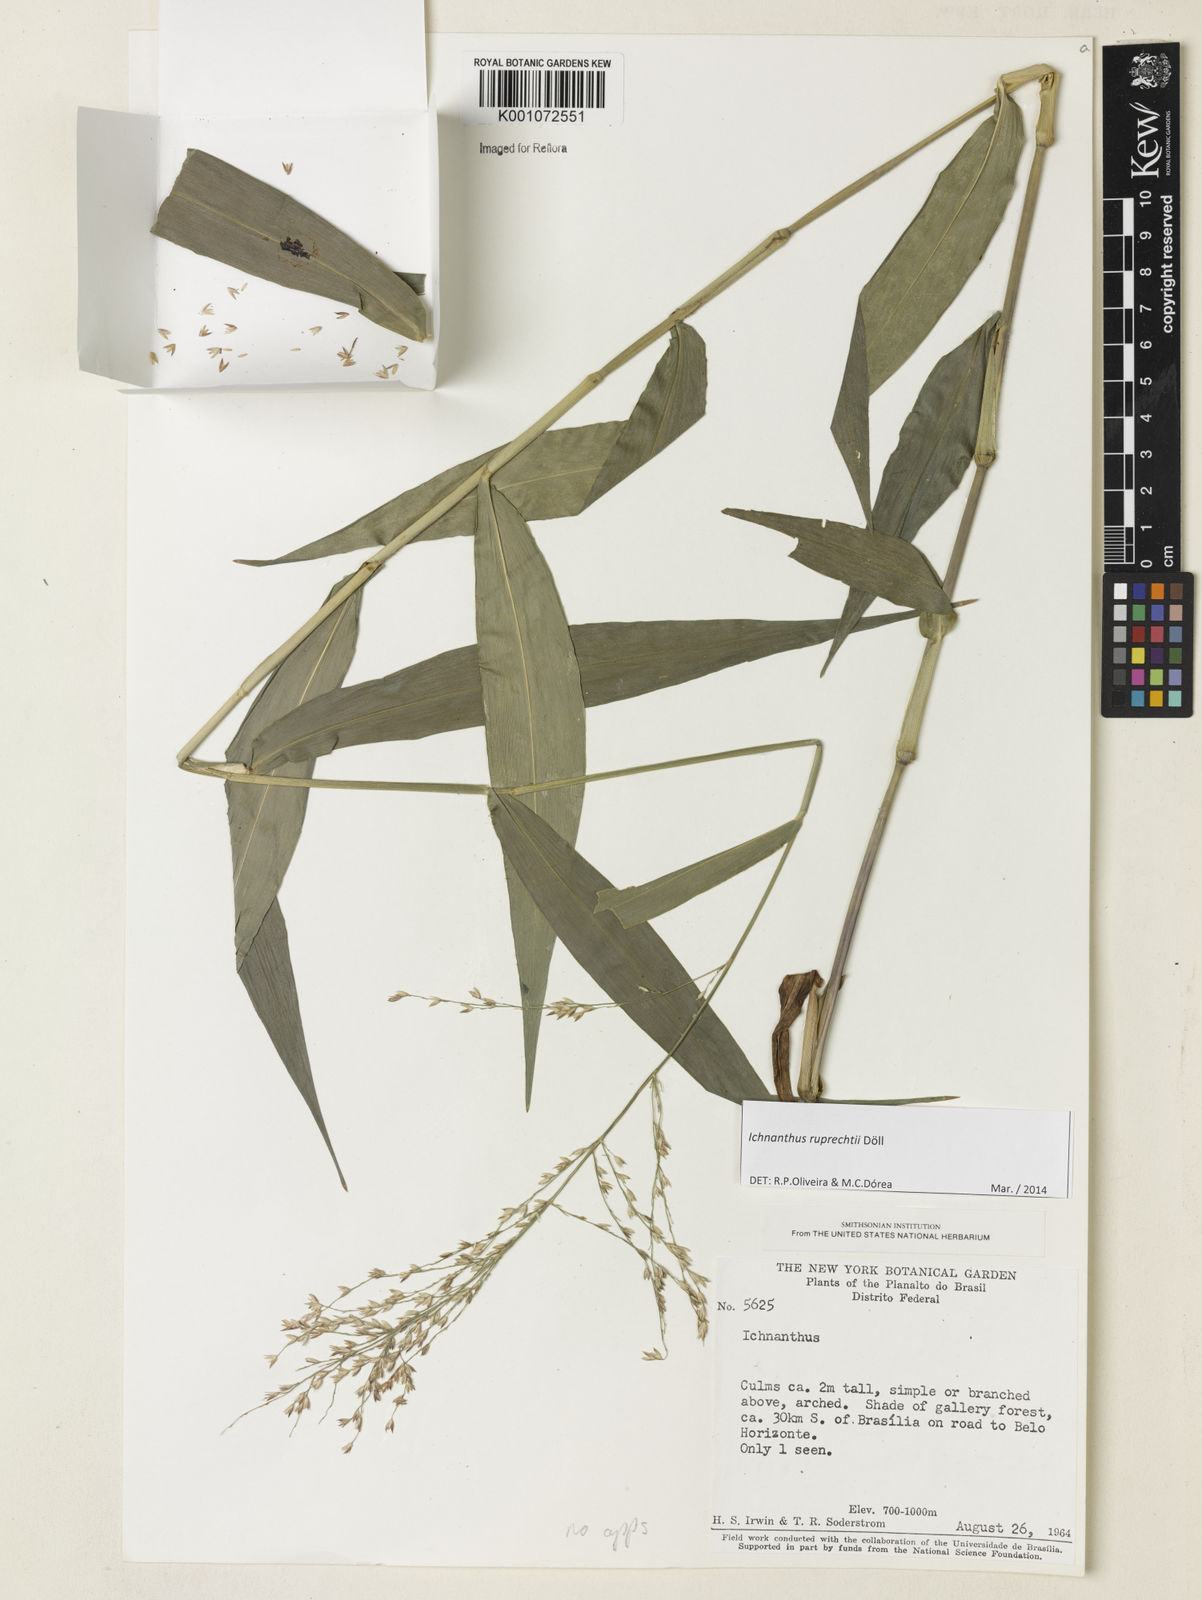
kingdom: Plantae
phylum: Tracheophyta
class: Liliopsida
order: Poales
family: Poaceae
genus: Ichnanthus
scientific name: Ichnanthus
